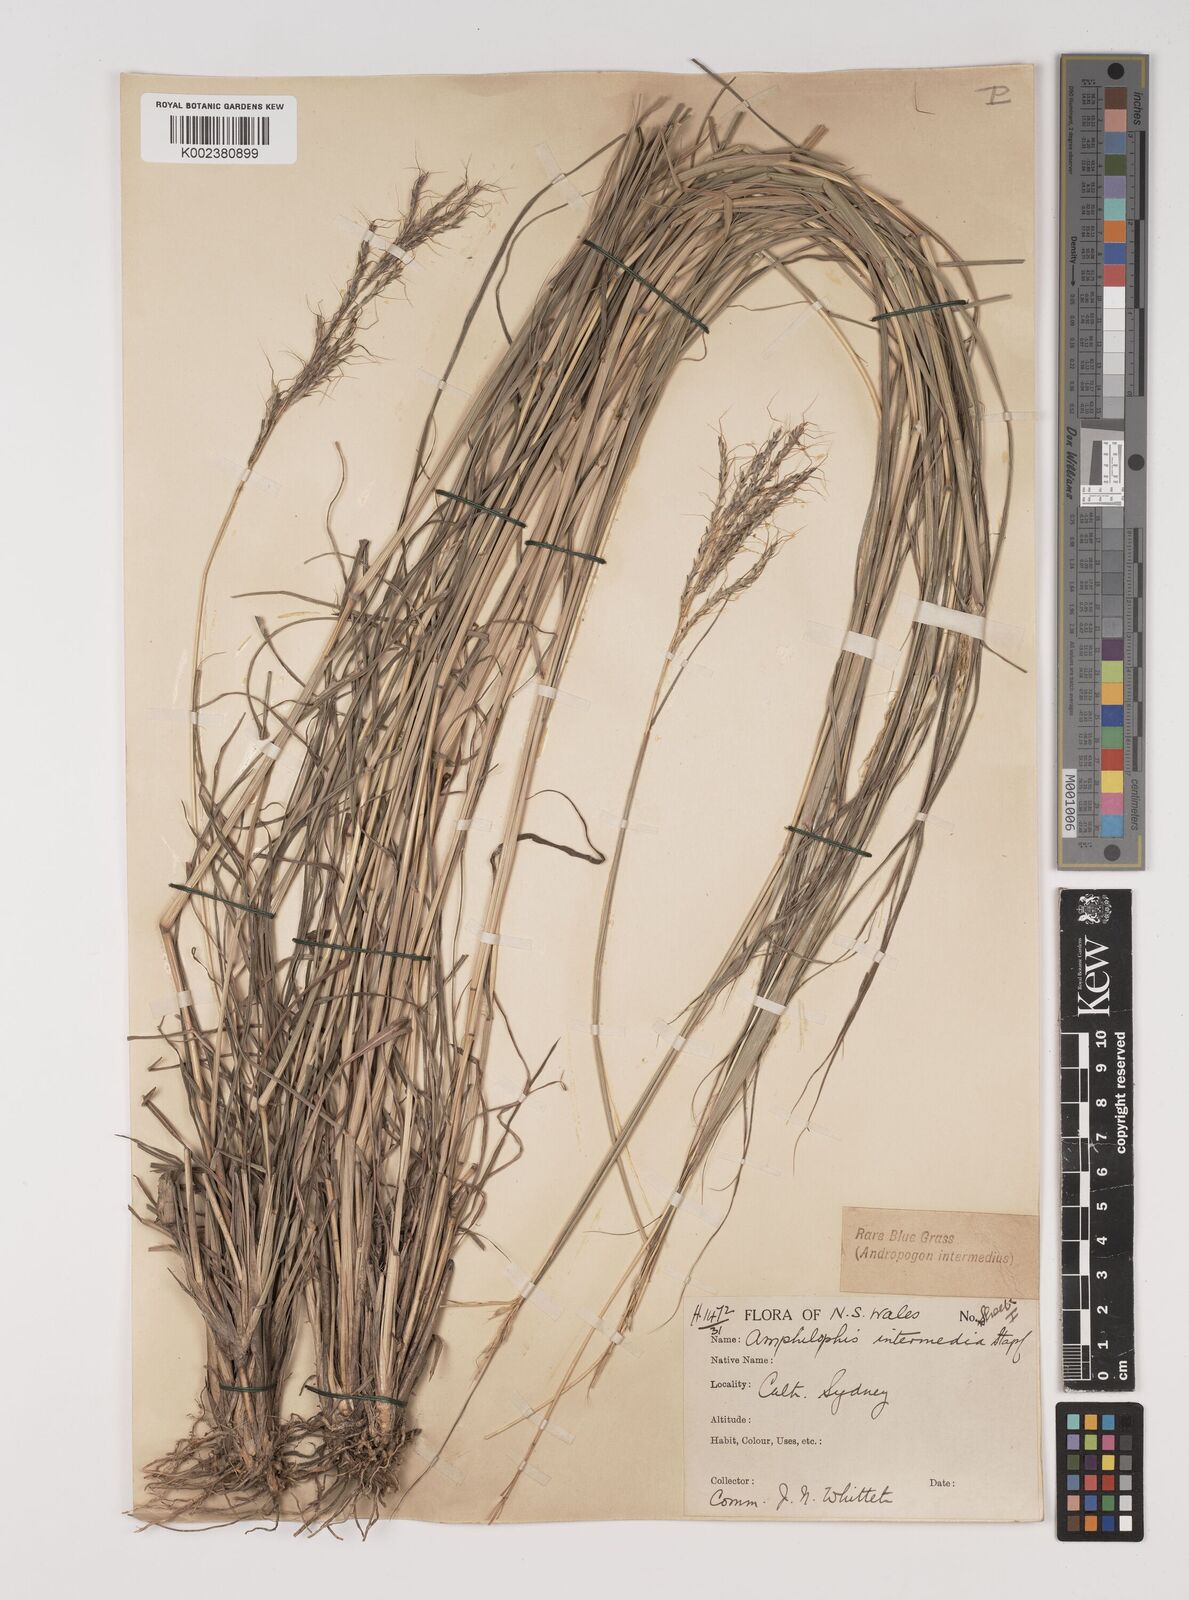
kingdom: Plantae
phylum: Tracheophyta
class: Liliopsida
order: Poales
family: Poaceae
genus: Bothriochloa
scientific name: Bothriochloa bladhii
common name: Caucasian bluestem
